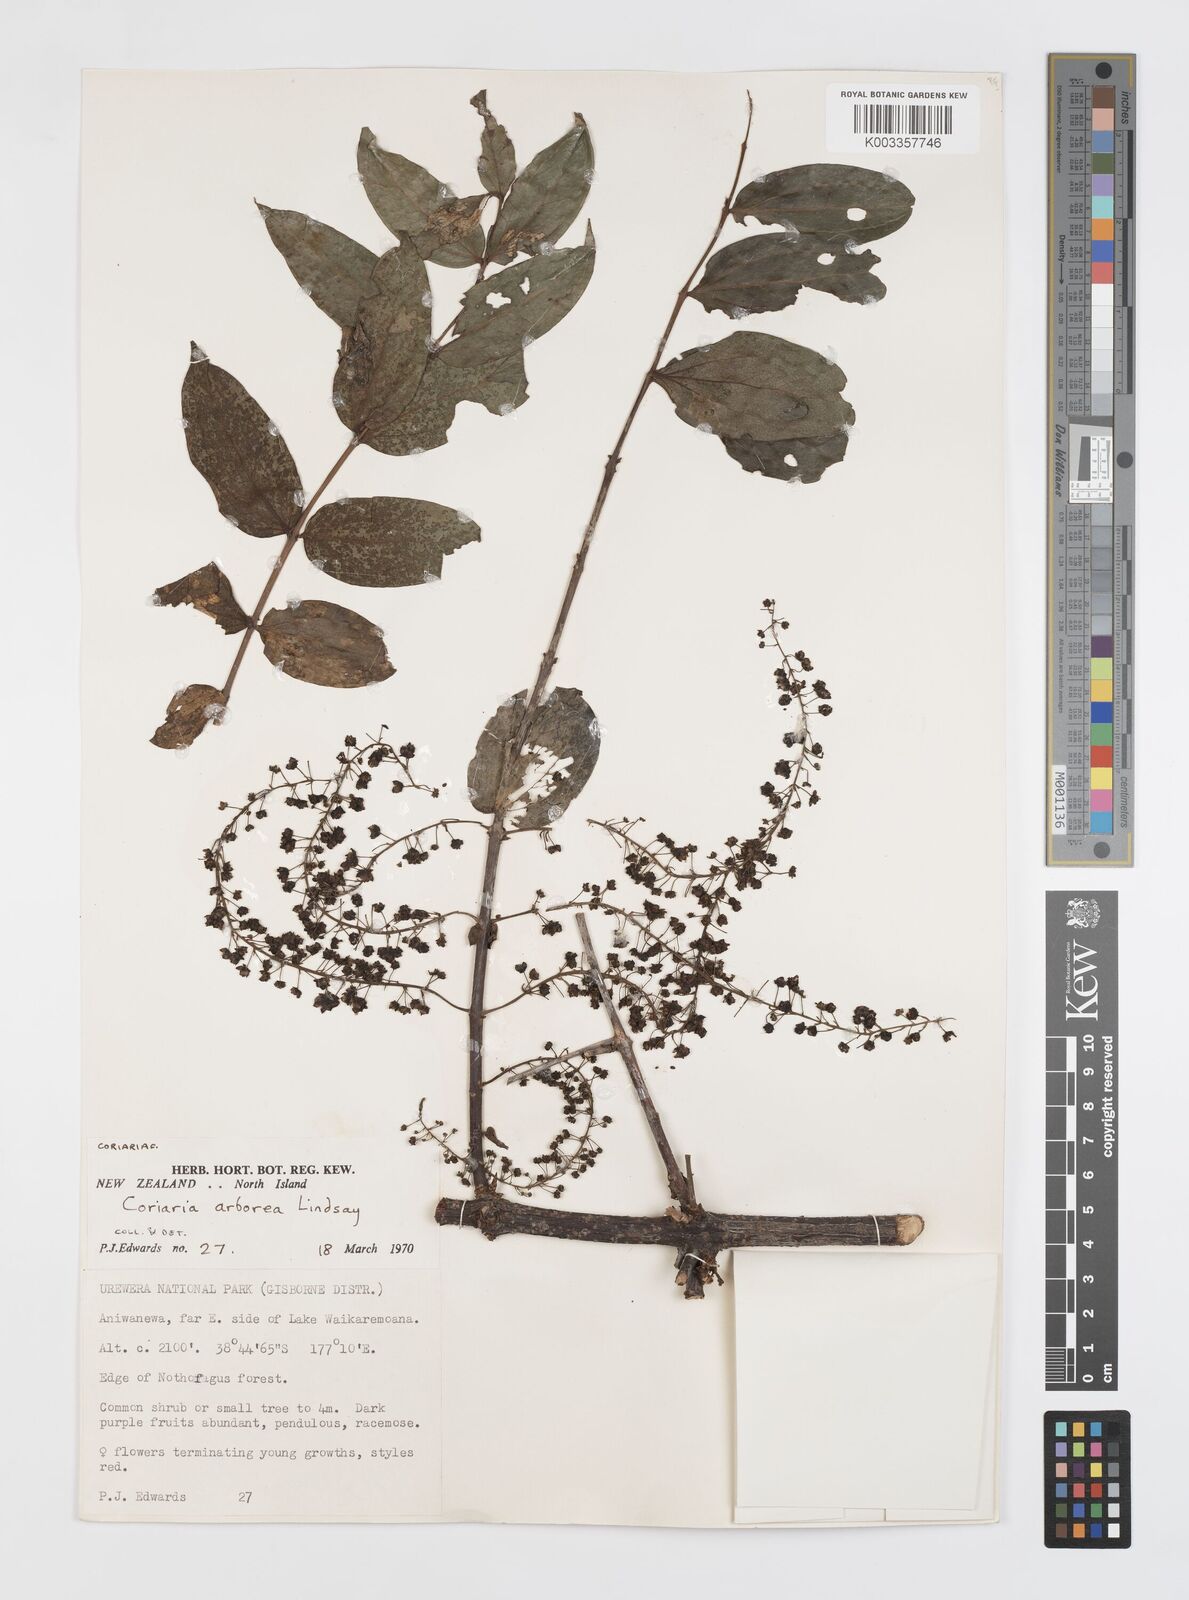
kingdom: Plantae
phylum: Tracheophyta
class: Magnoliopsida
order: Cucurbitales
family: Coriariaceae
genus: Coriaria
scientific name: Coriaria arborea
